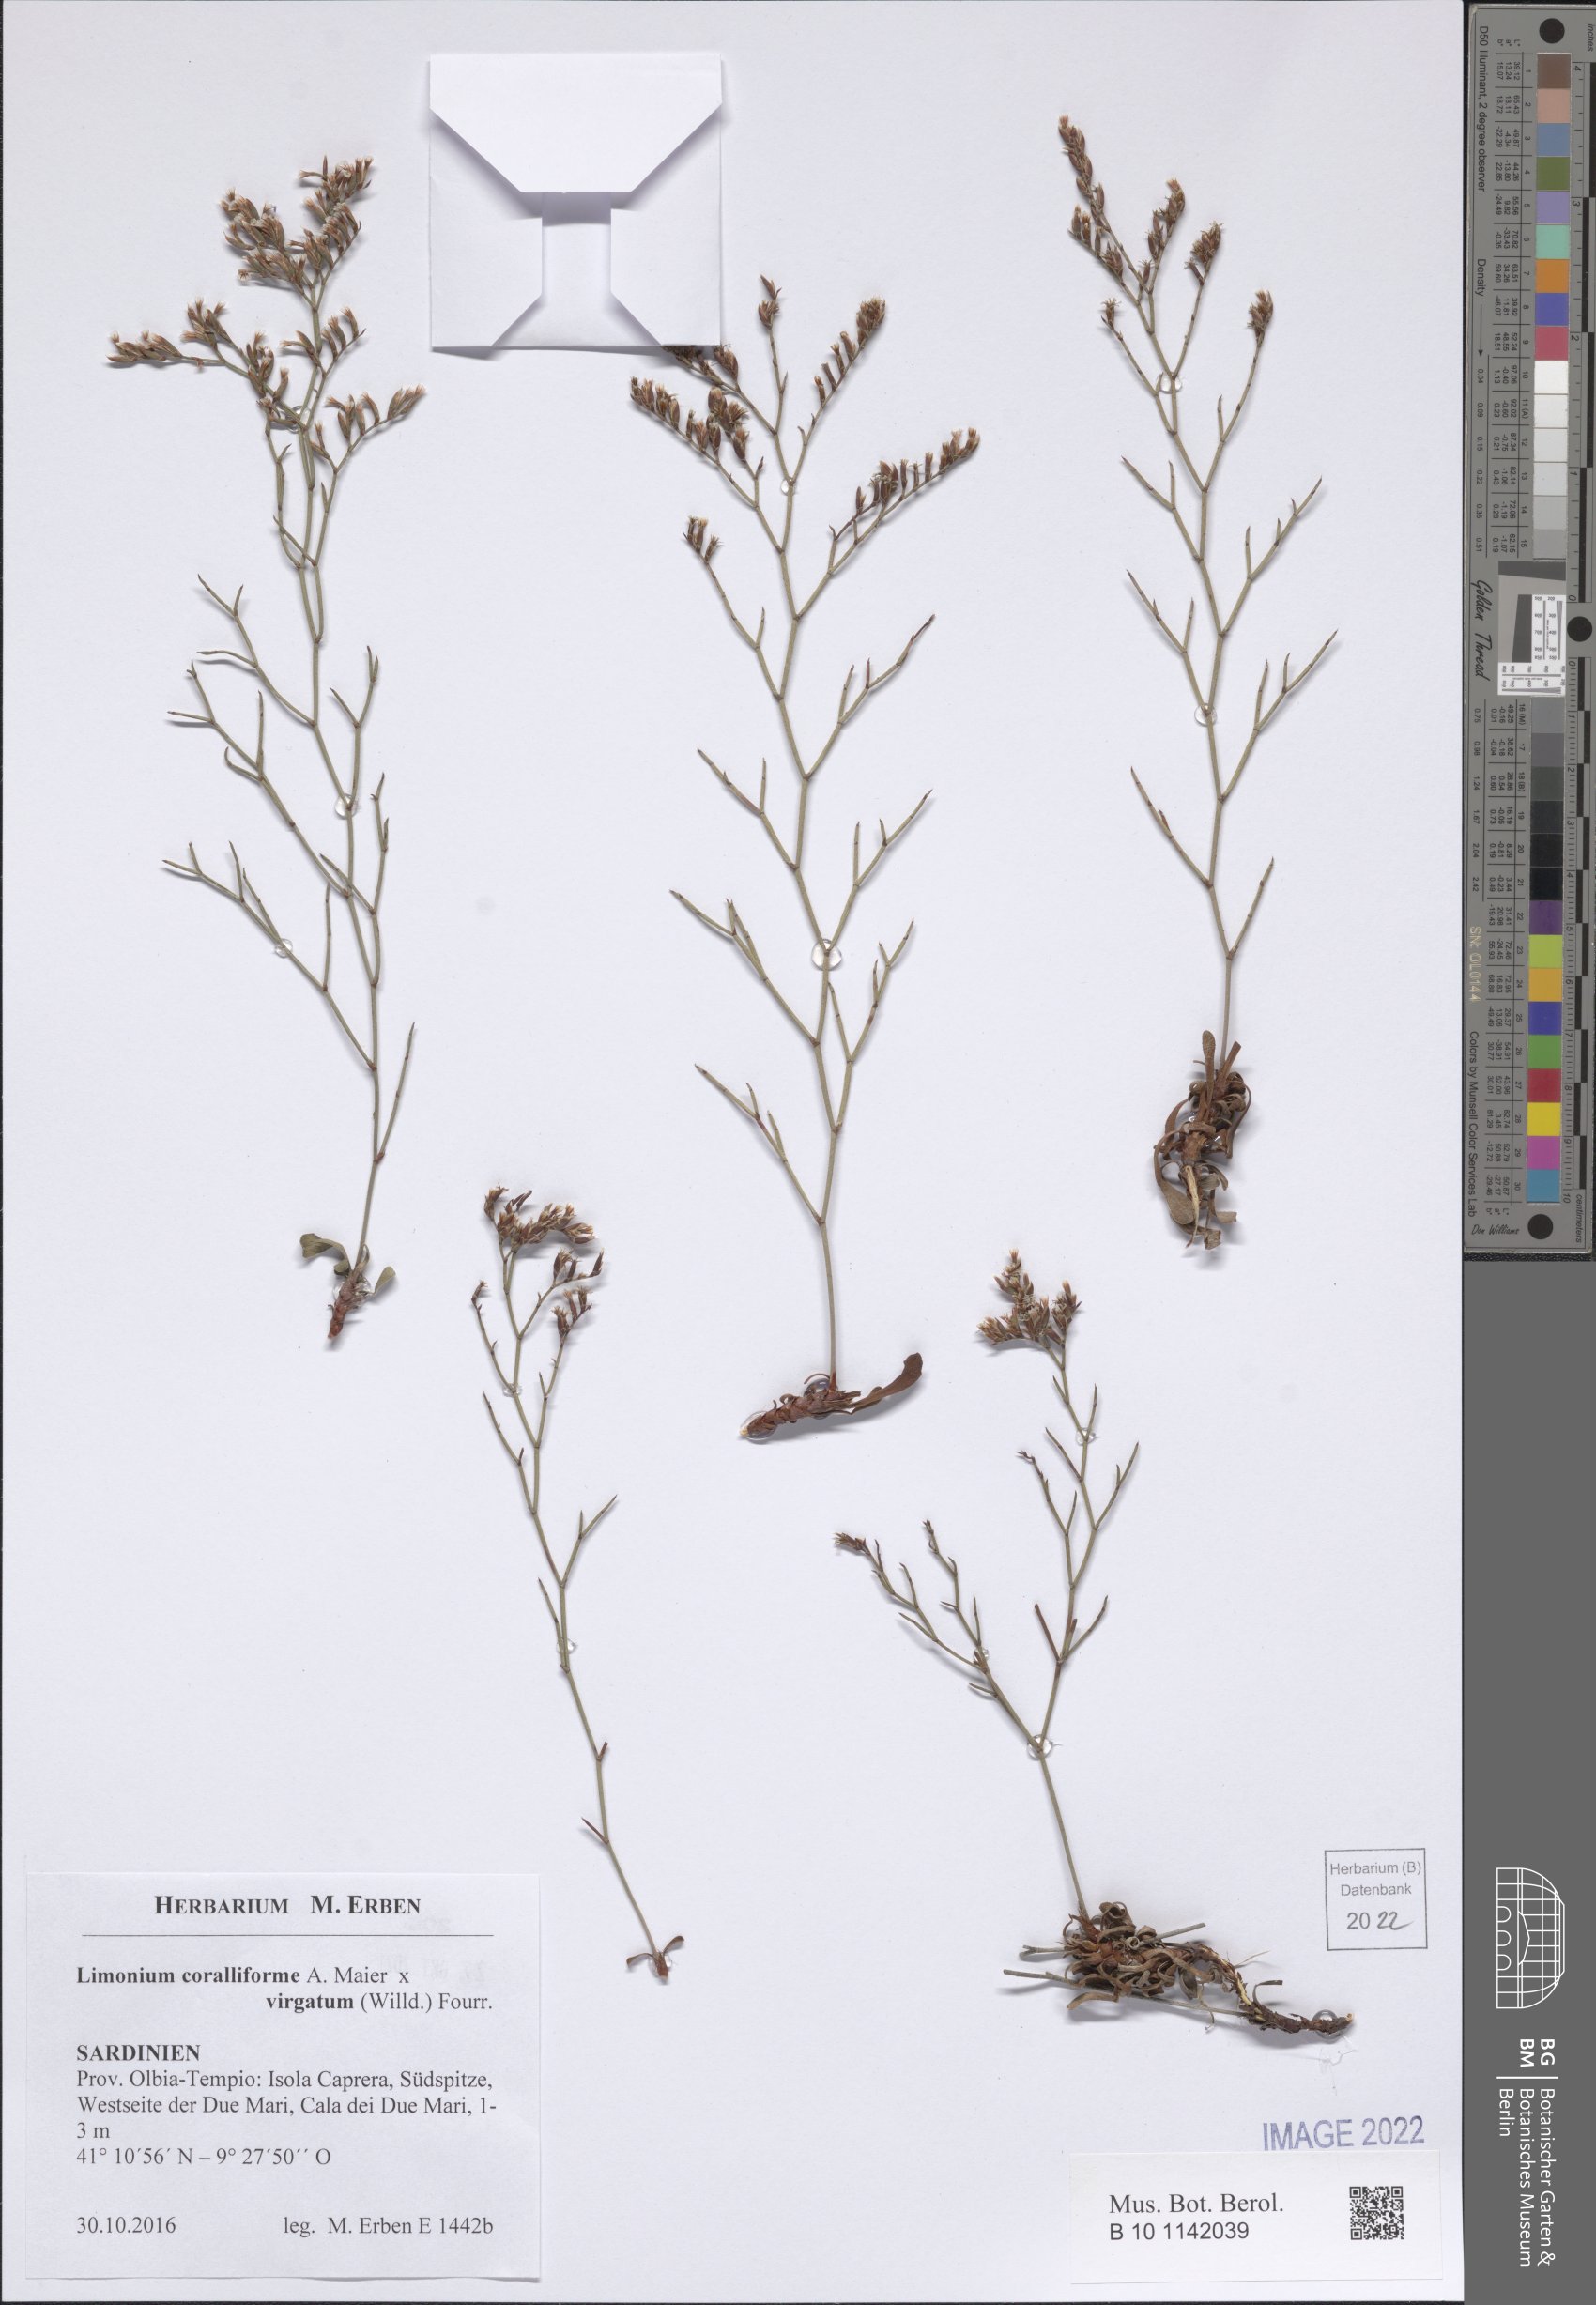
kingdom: Plantae
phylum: Tracheophyta
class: Magnoliopsida
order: Caryophyllales
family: Plumbaginaceae
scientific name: Plumbaginaceae
